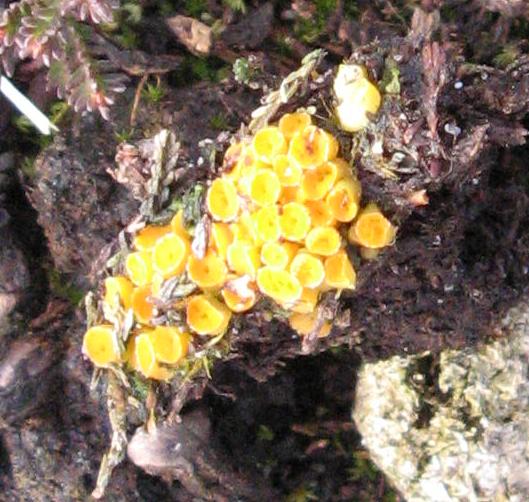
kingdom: Fungi
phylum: Ascomycota
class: Pezizomycetes
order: Pezizales
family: Pyronemataceae
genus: Byssonectria
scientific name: Byssonectria terrestris
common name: hjortebæger
